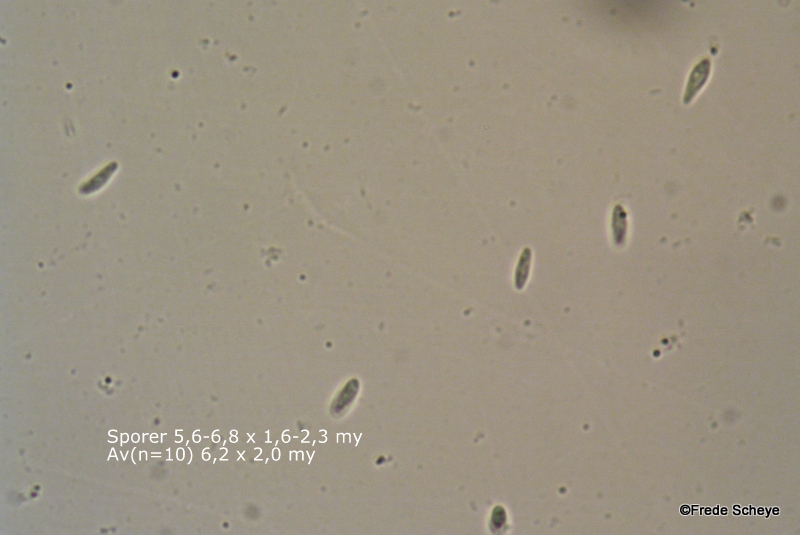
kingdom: Fungi
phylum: Ascomycota
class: Leotiomycetes
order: Helotiales
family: Lachnaceae
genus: Lachnum
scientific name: Lachnum impudicum
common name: vinter-frynseskive
